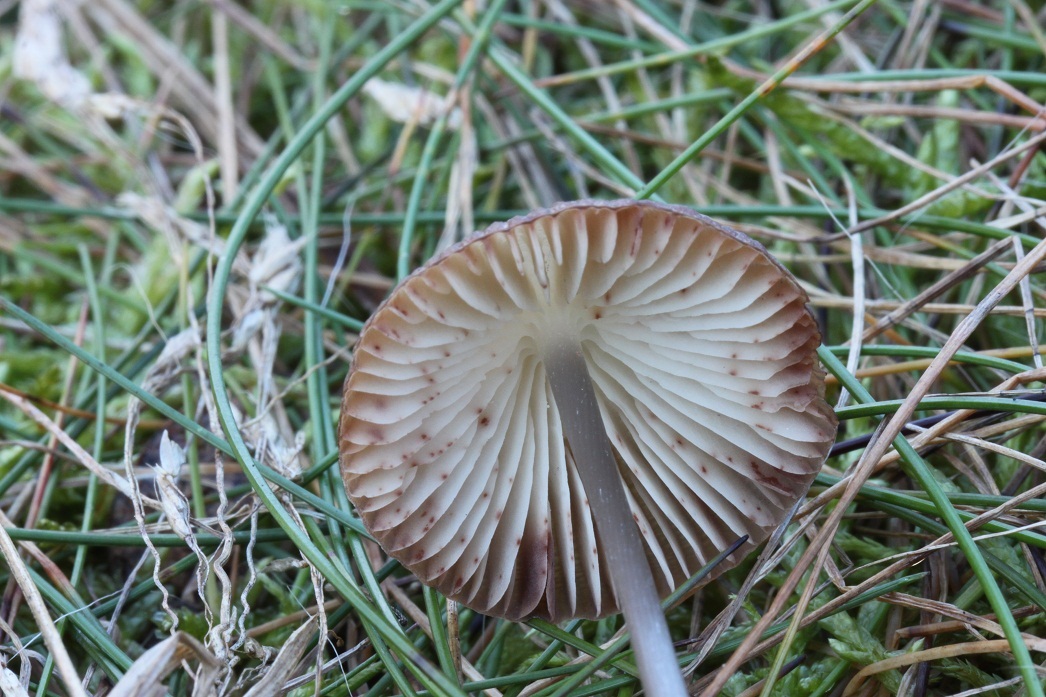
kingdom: Fungi
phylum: Basidiomycota
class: Agaricomycetes
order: Agaricales
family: Mycenaceae
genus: Mycena
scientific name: Mycena polygramma
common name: mangestribet huesvamp
